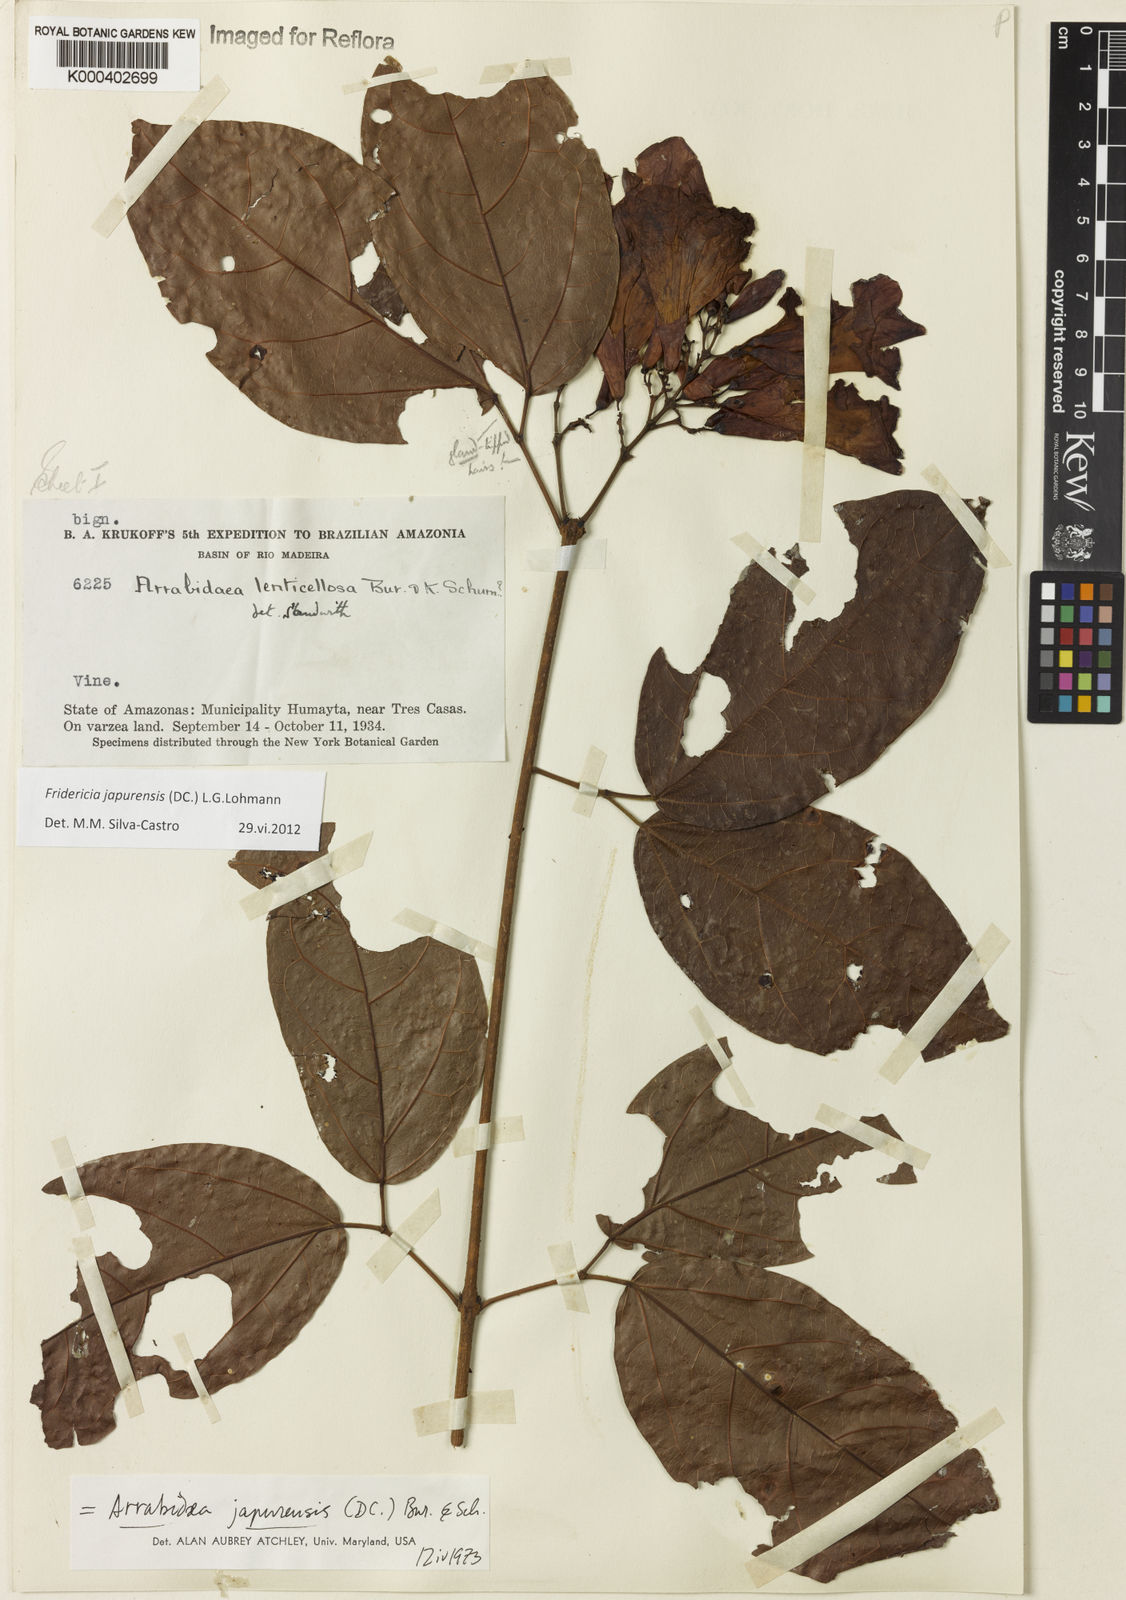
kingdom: Plantae
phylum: Tracheophyta
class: Magnoliopsida
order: Lamiales
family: Bignoniaceae
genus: Fridericia
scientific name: Fridericia japurensis
